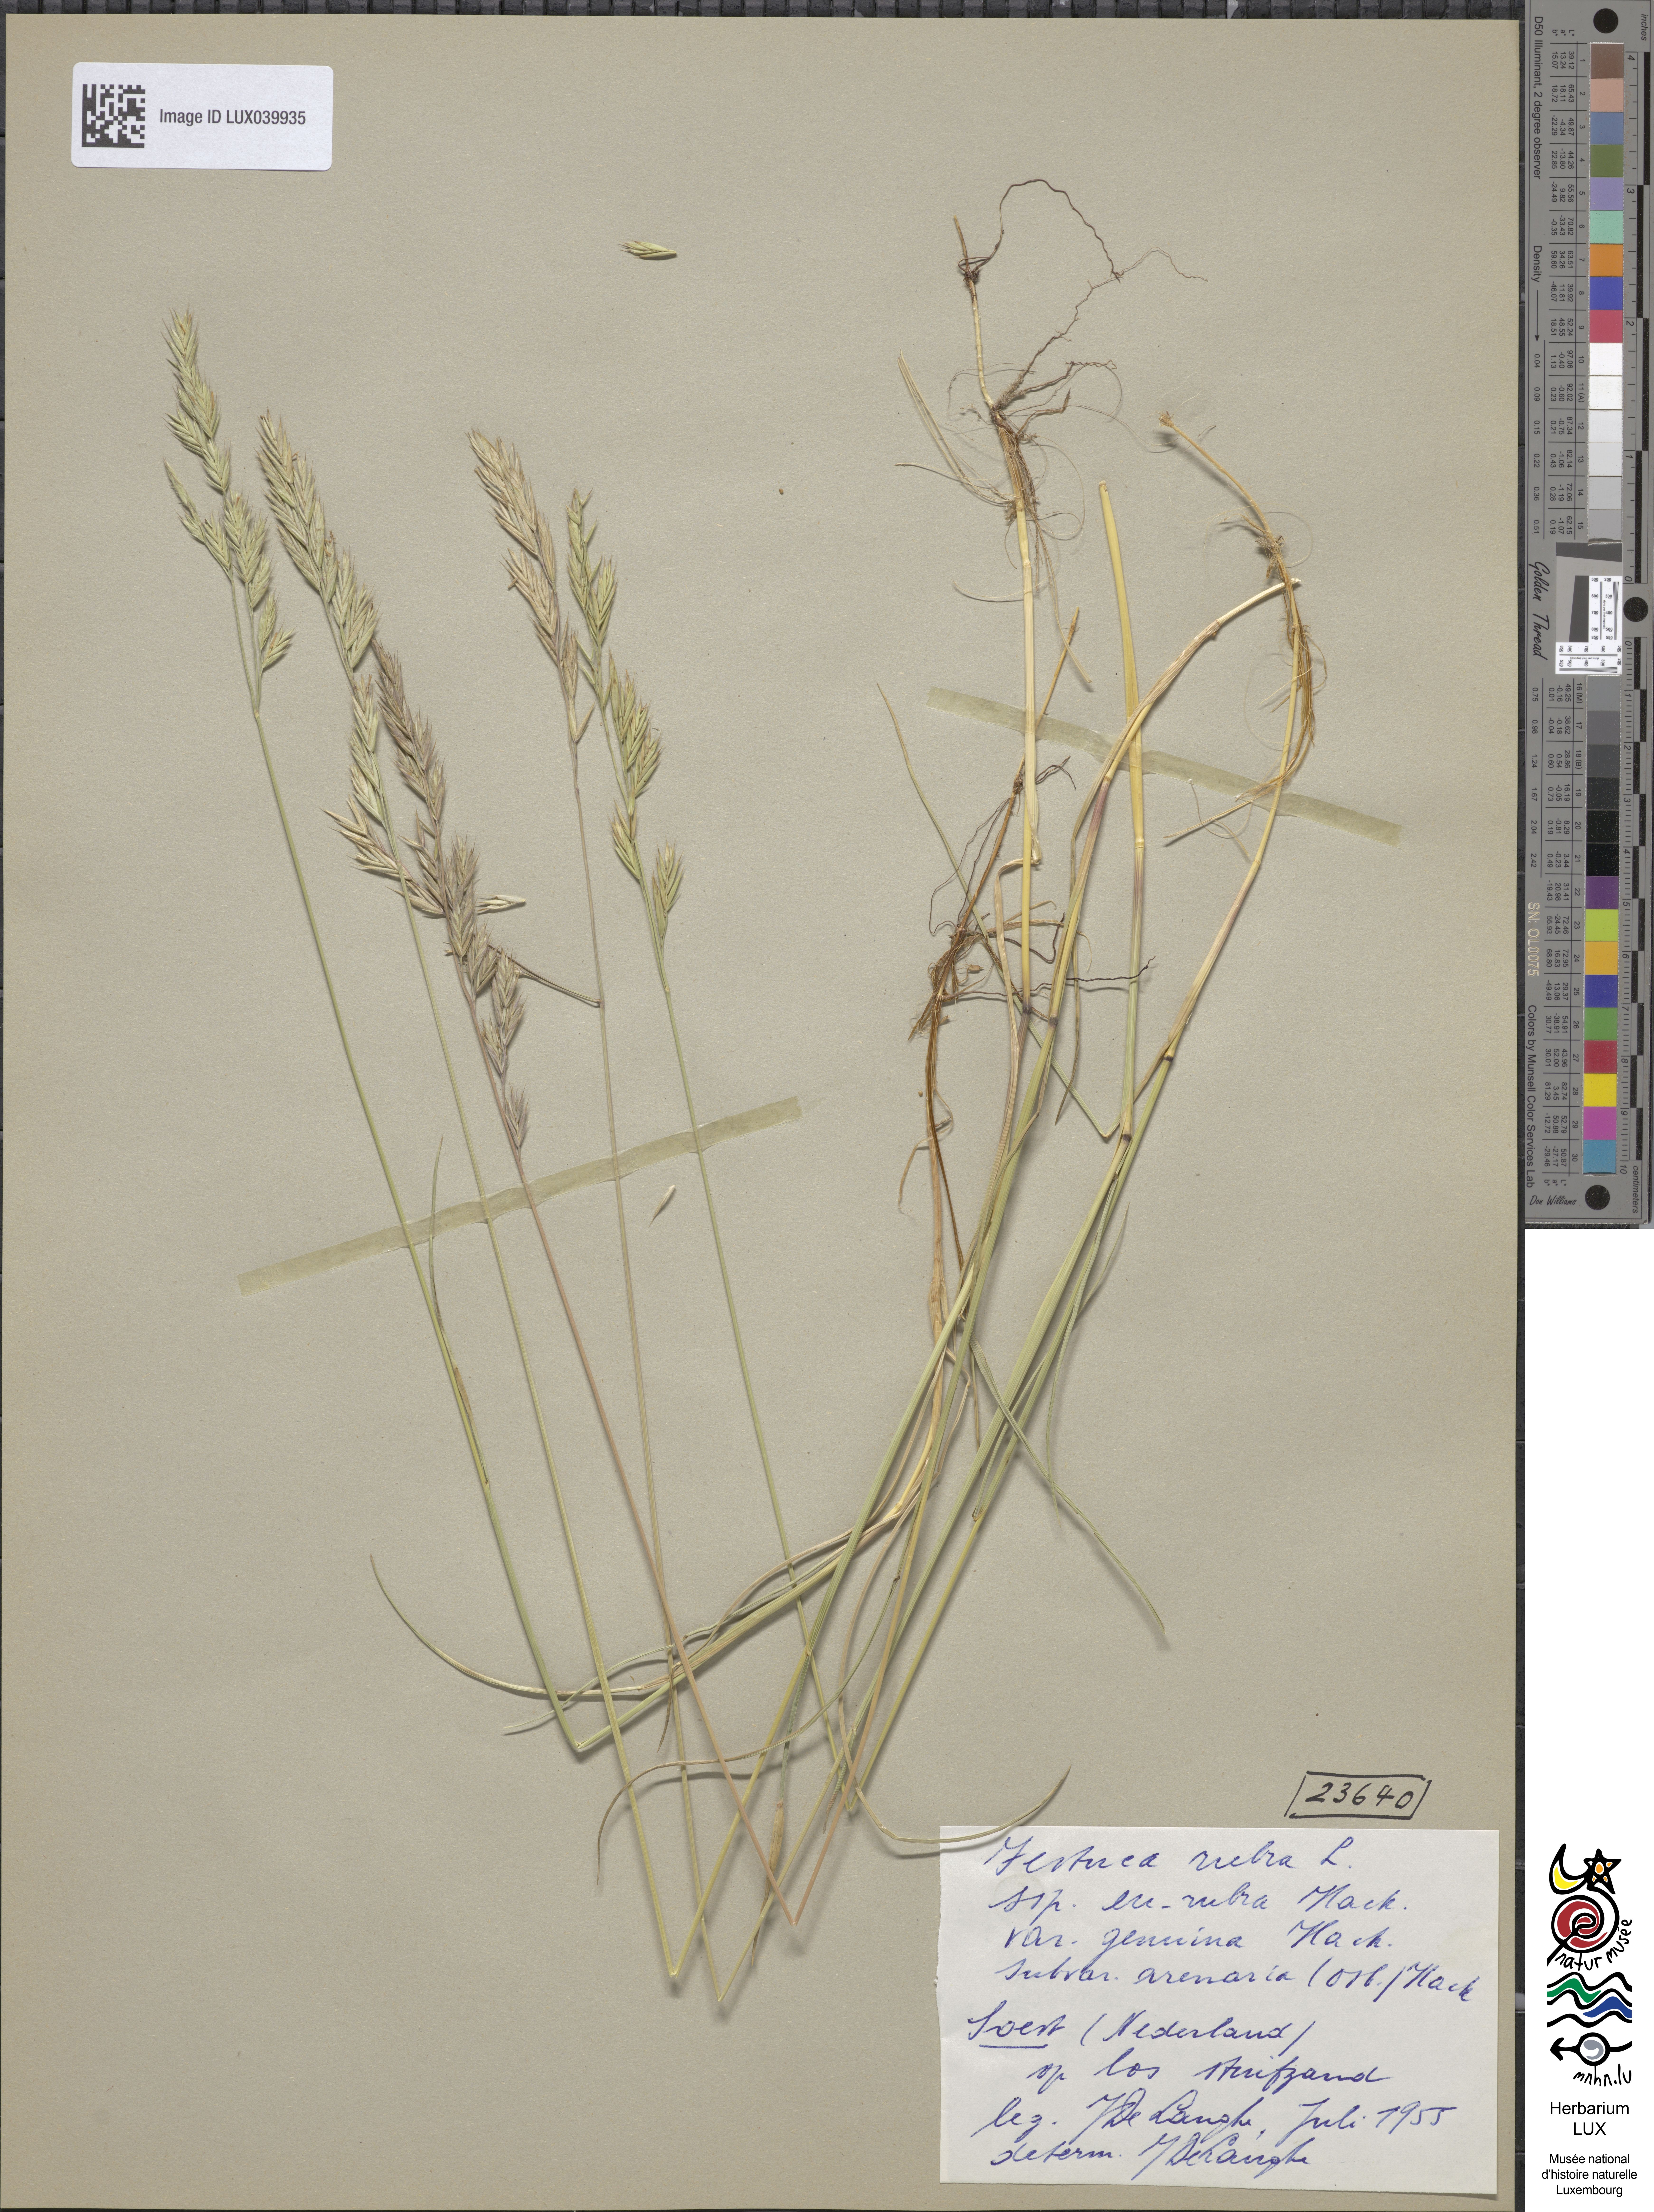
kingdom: Plantae
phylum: Tracheophyta
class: Liliopsida
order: Poales
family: Poaceae
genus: Festuca
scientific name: Festuca rubra
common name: Red fescue
